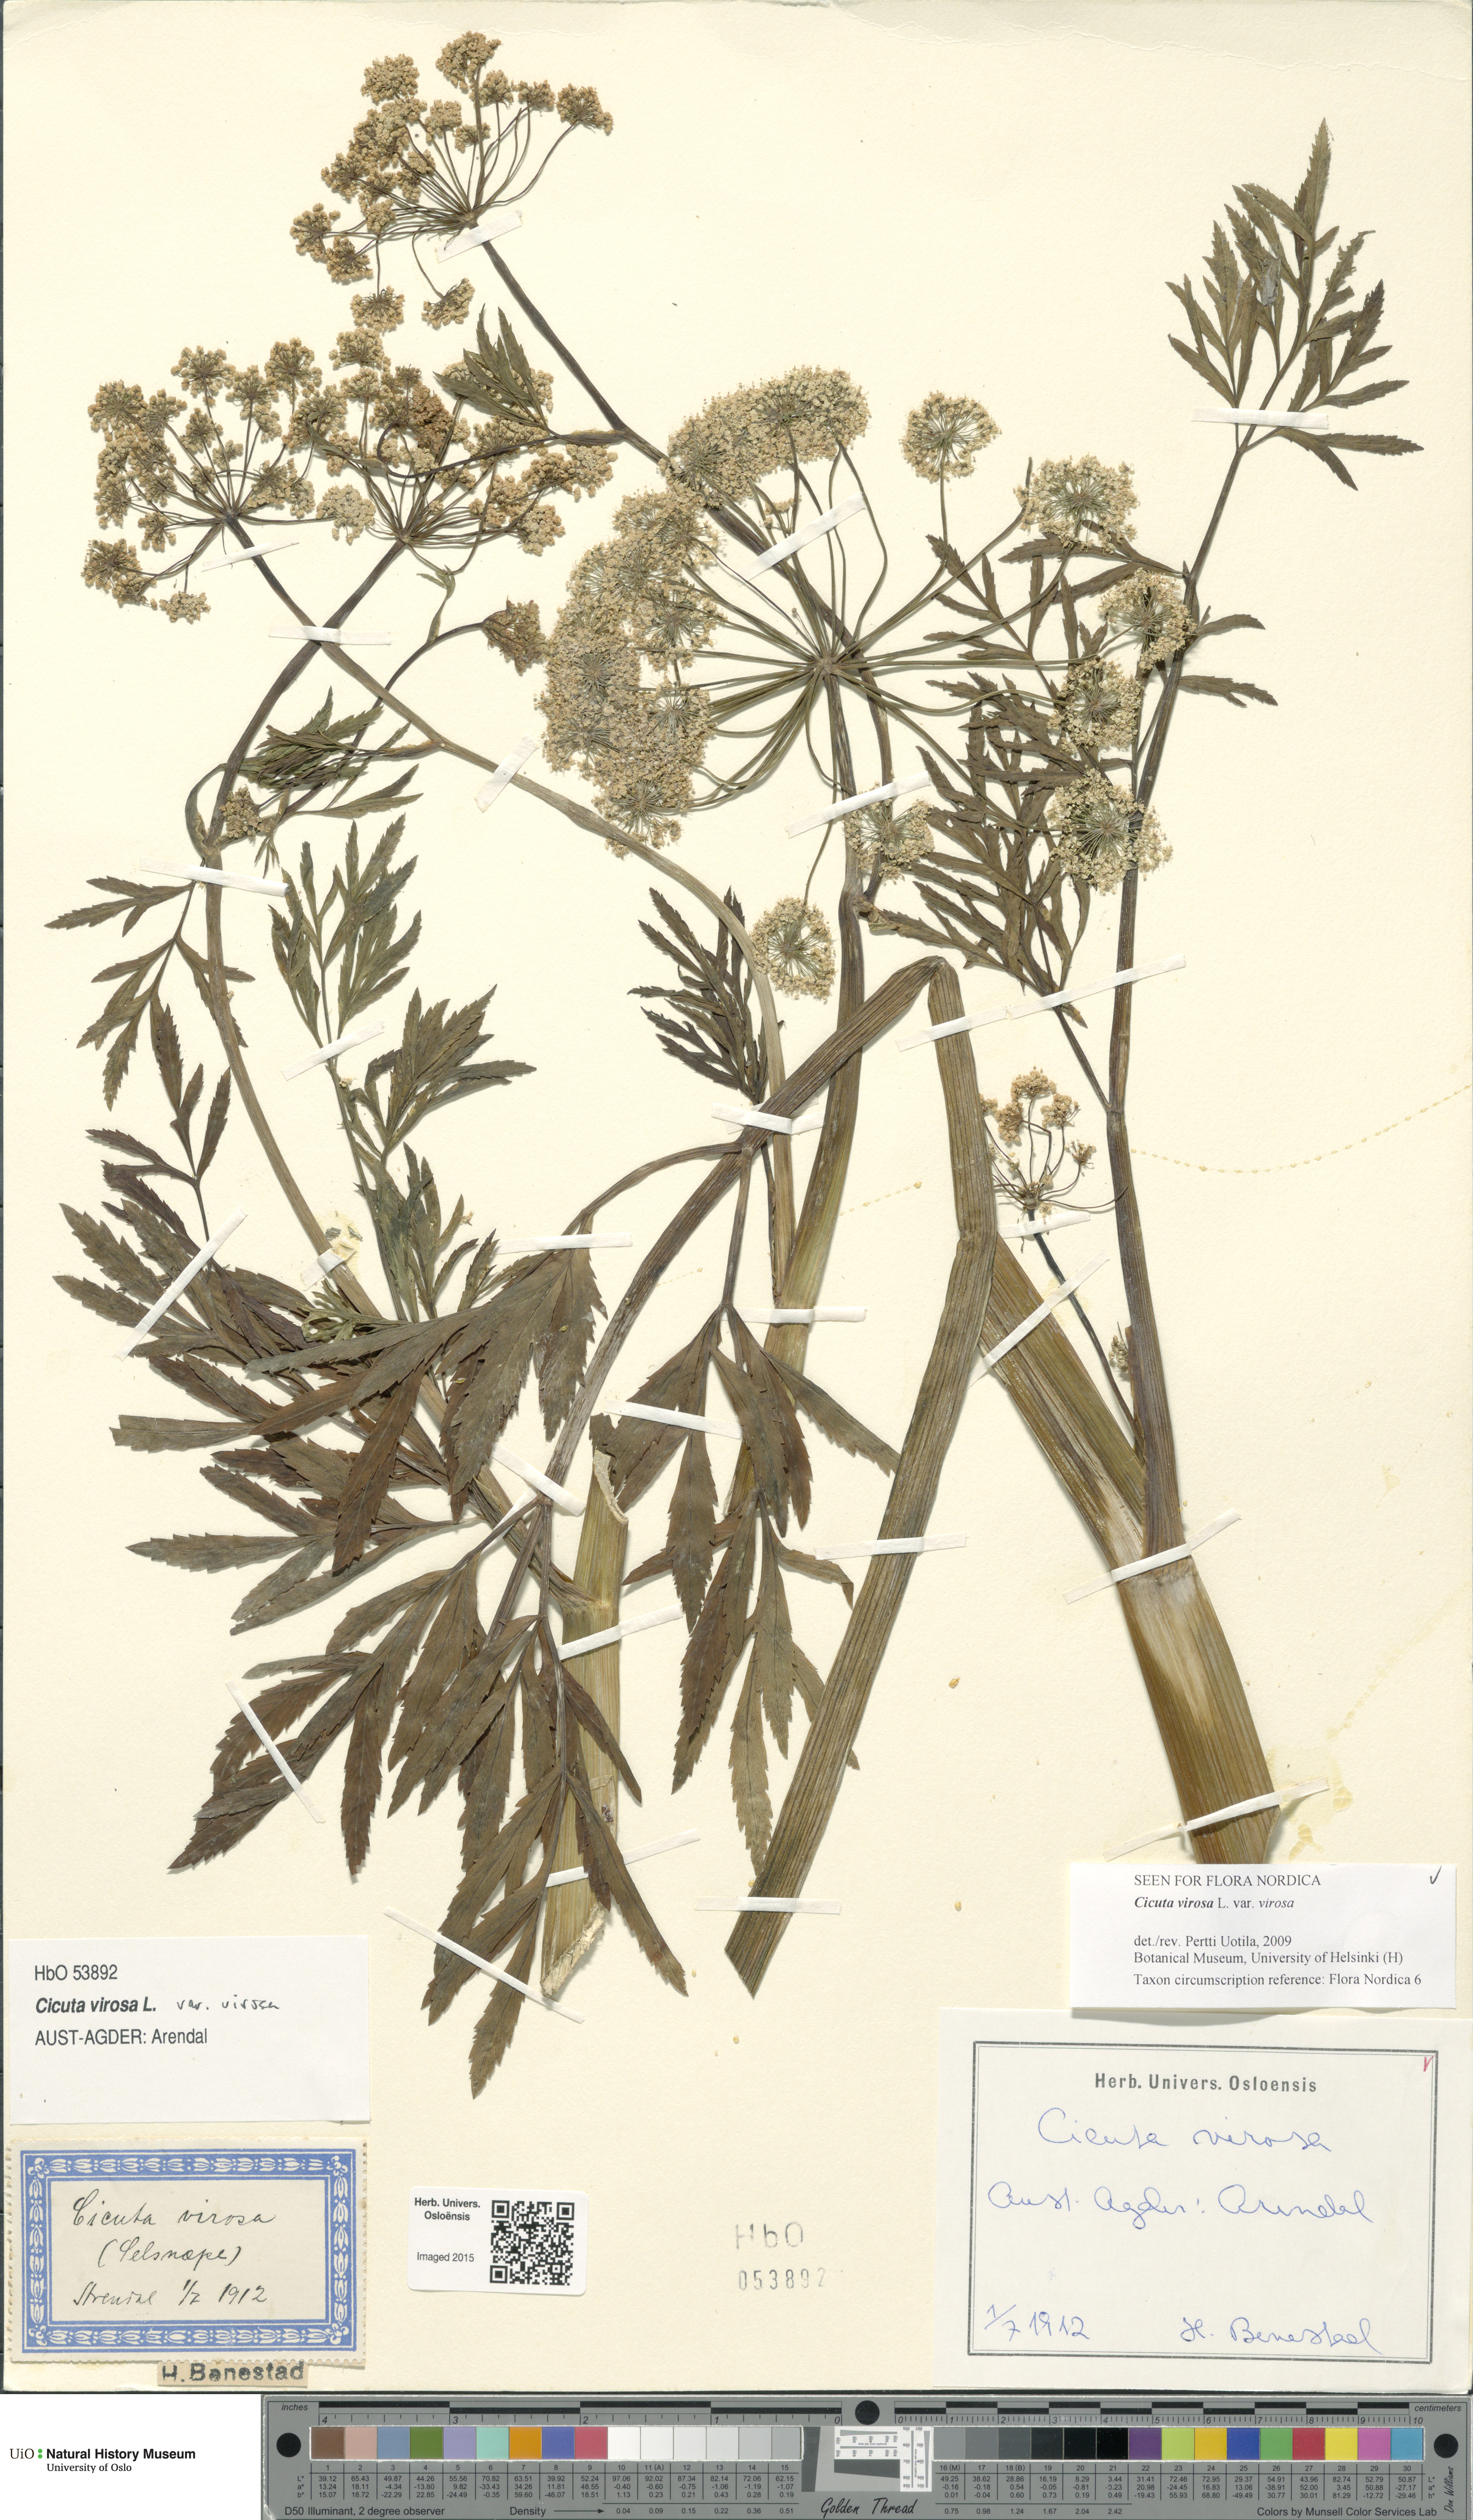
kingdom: Plantae
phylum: Tracheophyta
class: Magnoliopsida
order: Apiales
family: Apiaceae
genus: Cicuta
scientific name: Cicuta virosa
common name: Cowbane
